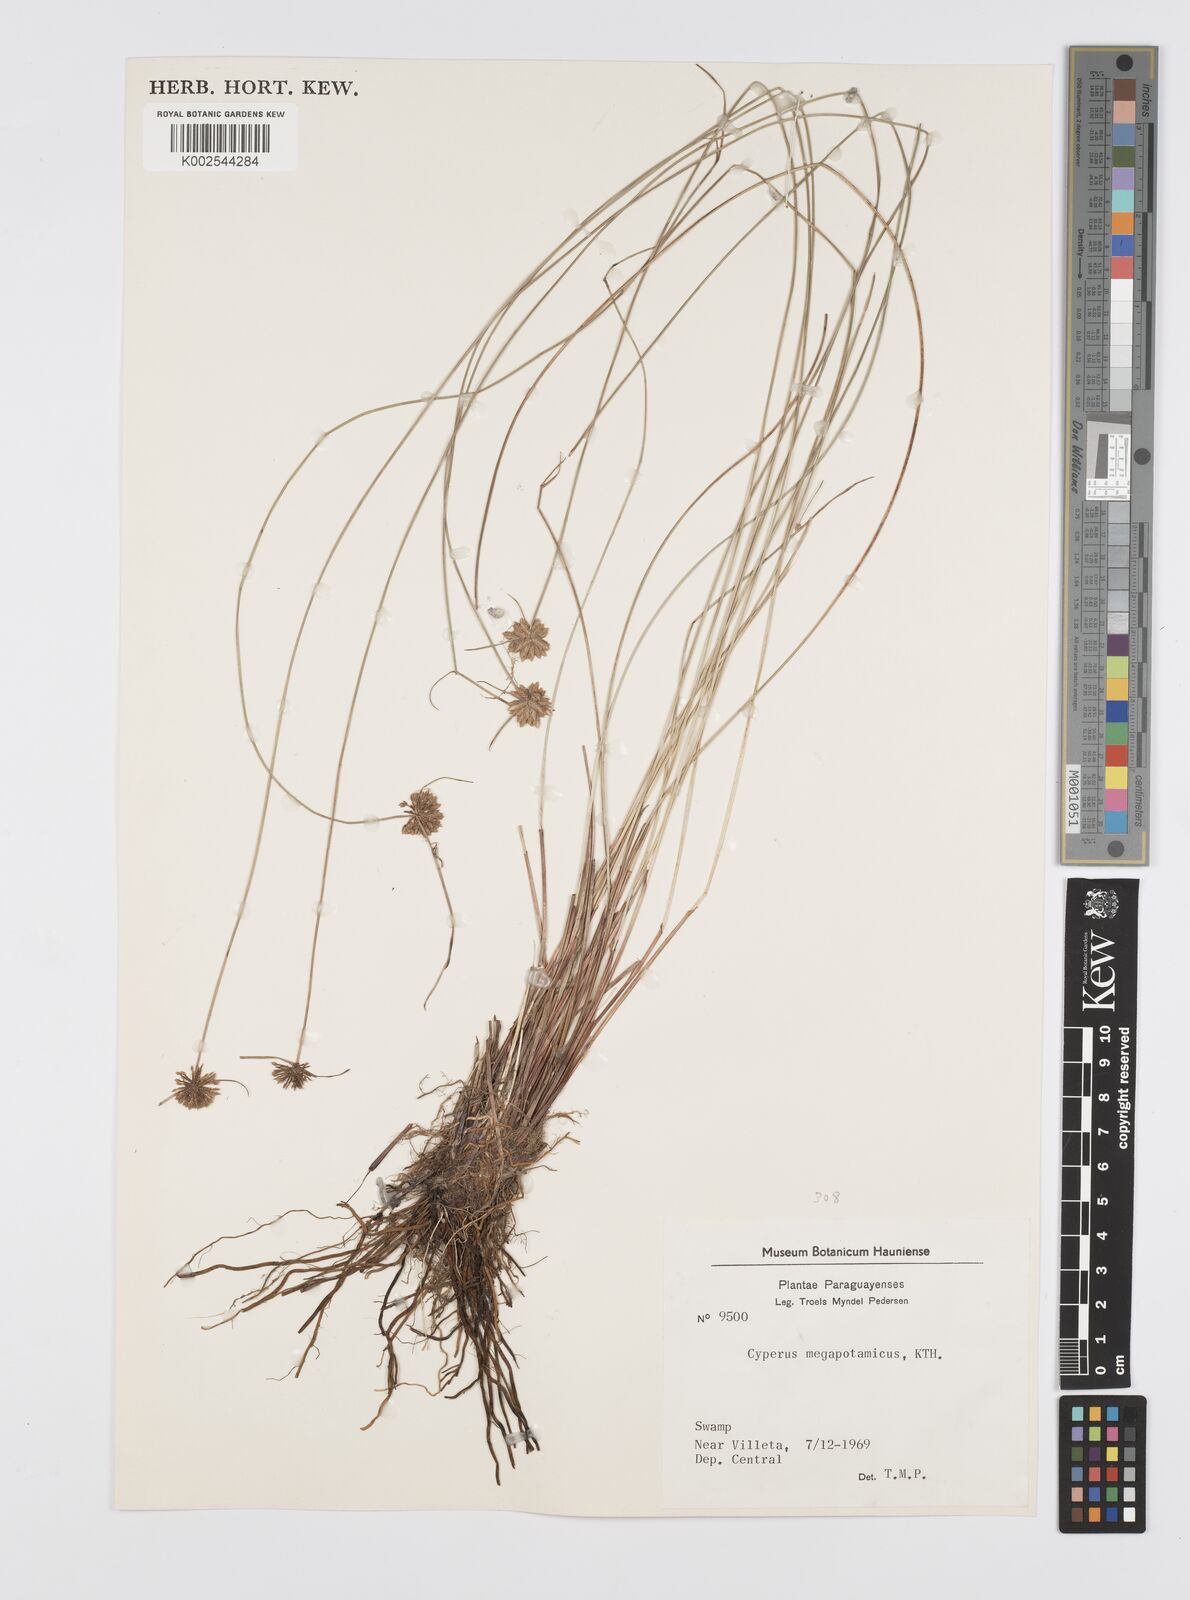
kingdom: Plantae
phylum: Tracheophyta
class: Liliopsida
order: Poales
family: Cyperaceae
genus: Cyperus
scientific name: Cyperus megapotamicus
